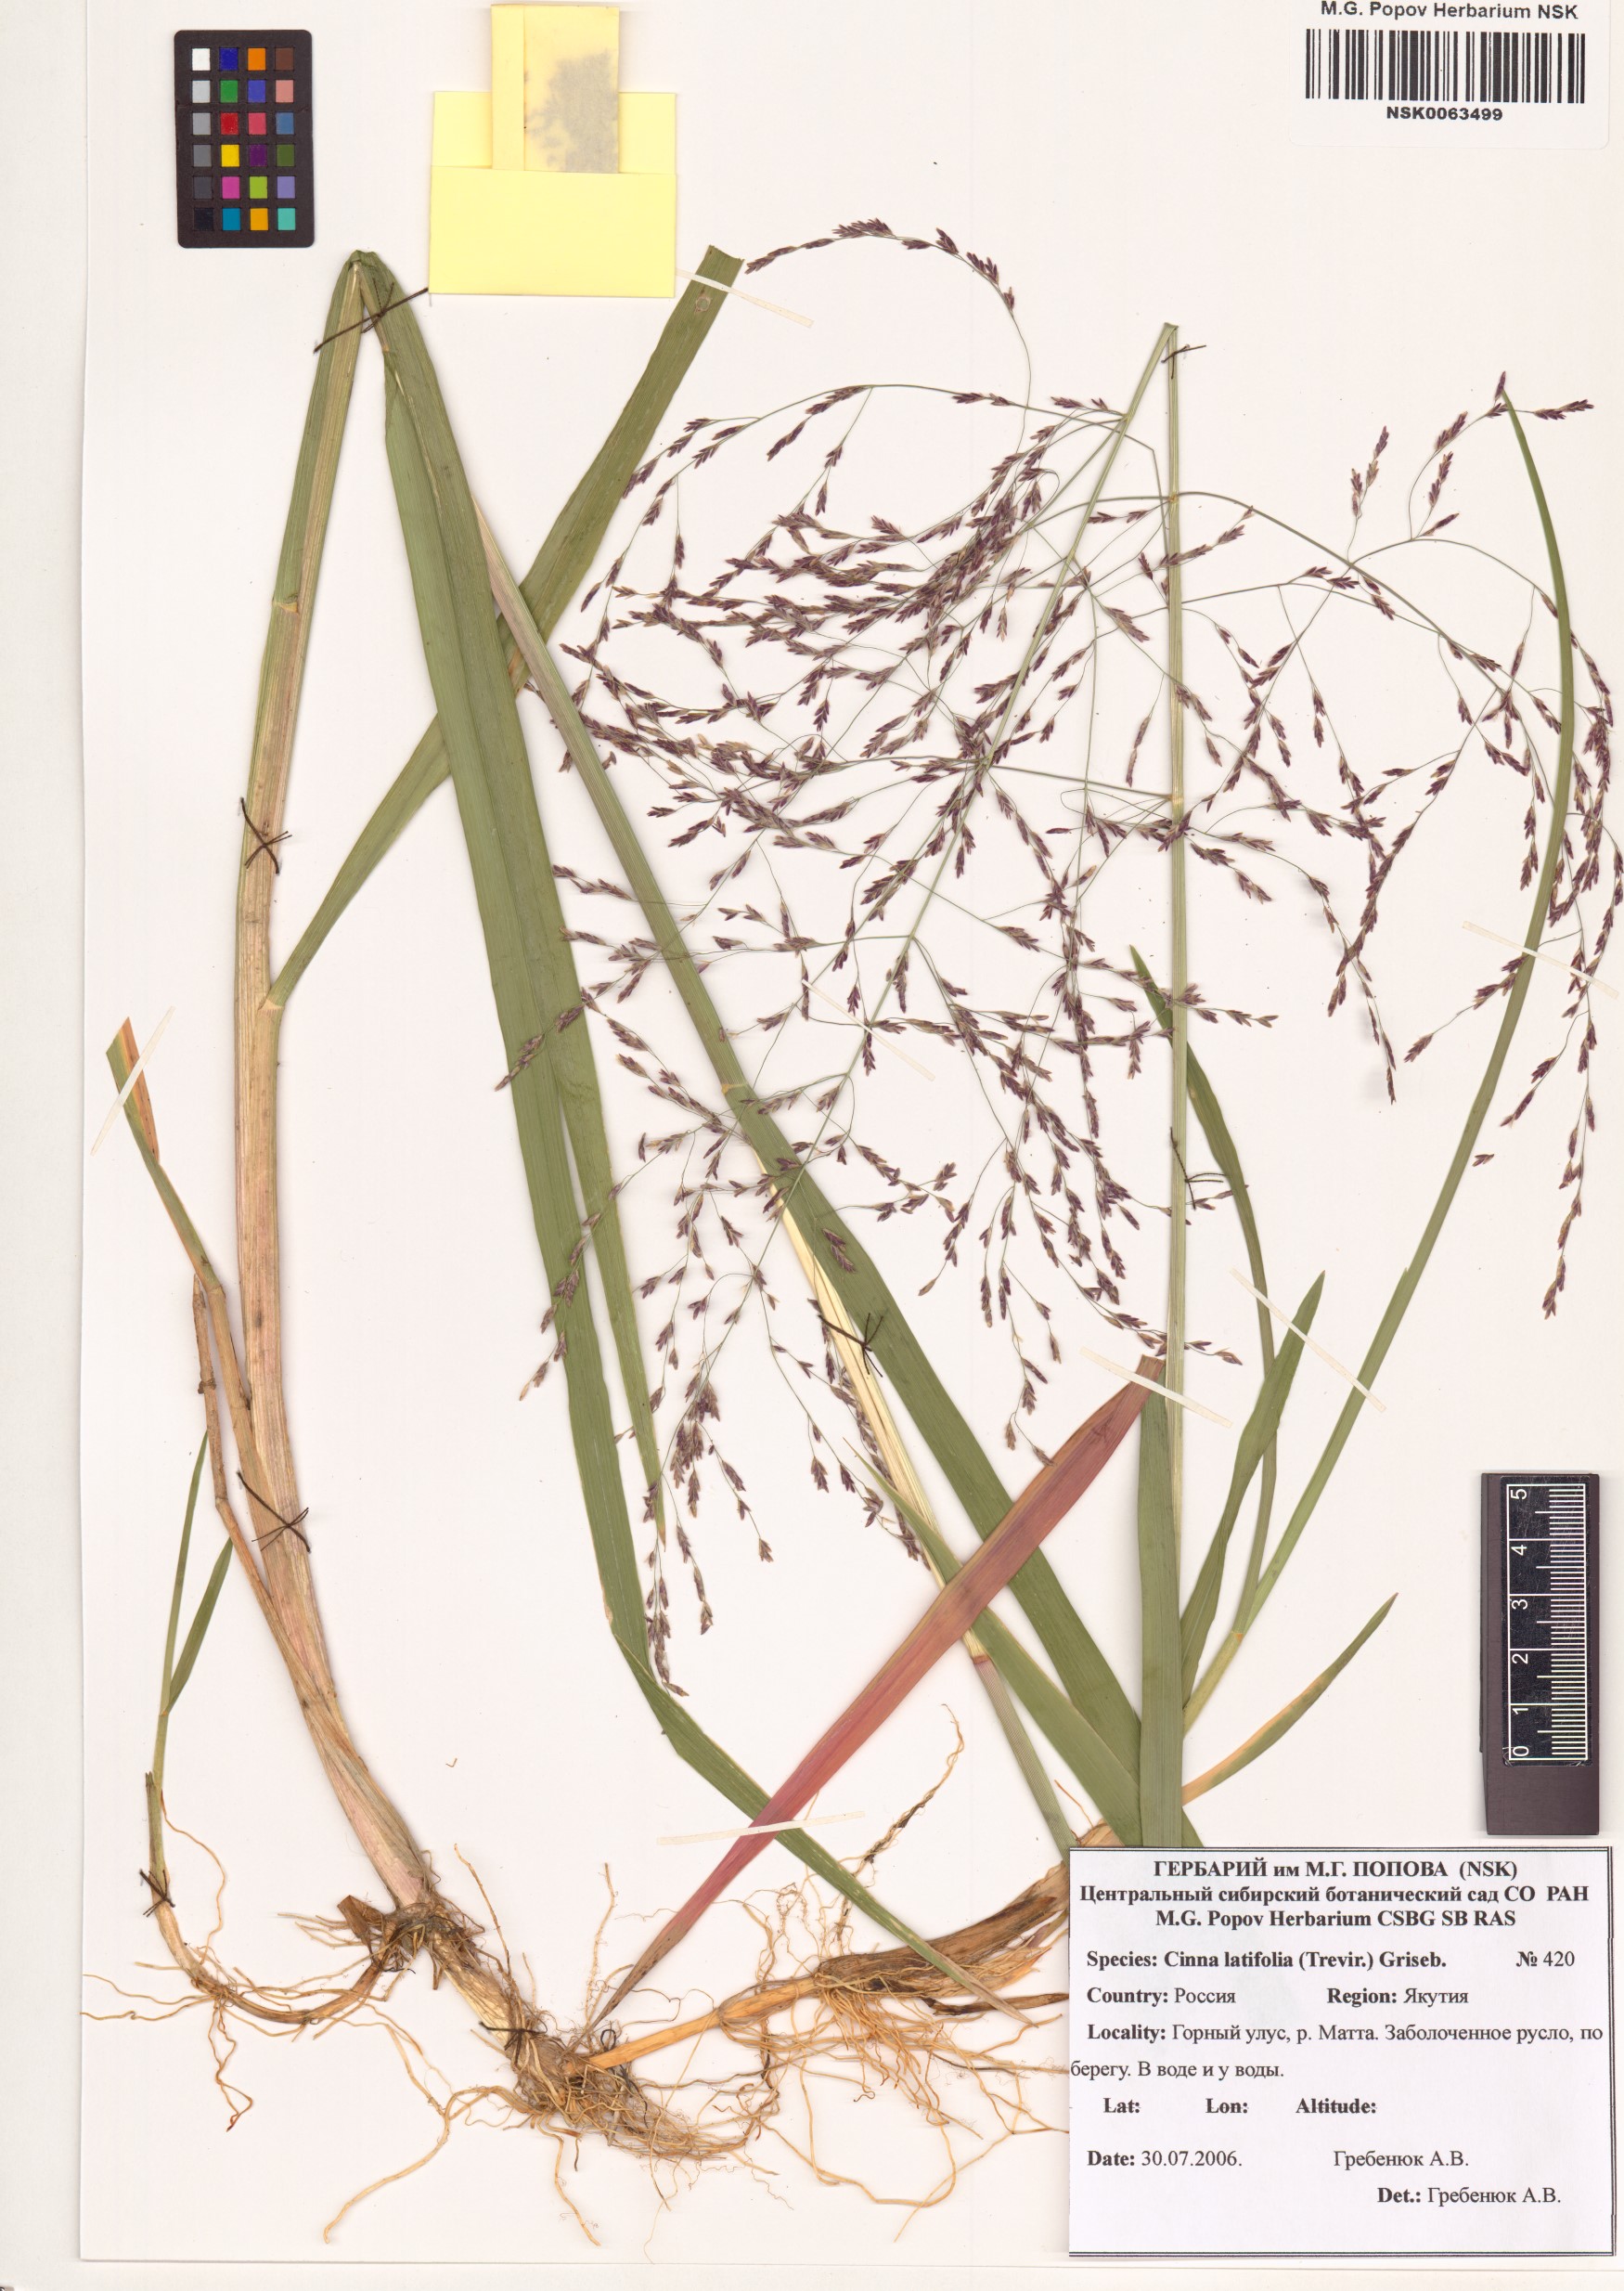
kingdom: Plantae
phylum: Tracheophyta
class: Liliopsida
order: Poales
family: Poaceae
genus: Cinna
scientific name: Cinna latifolia
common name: Drooping woodreed
